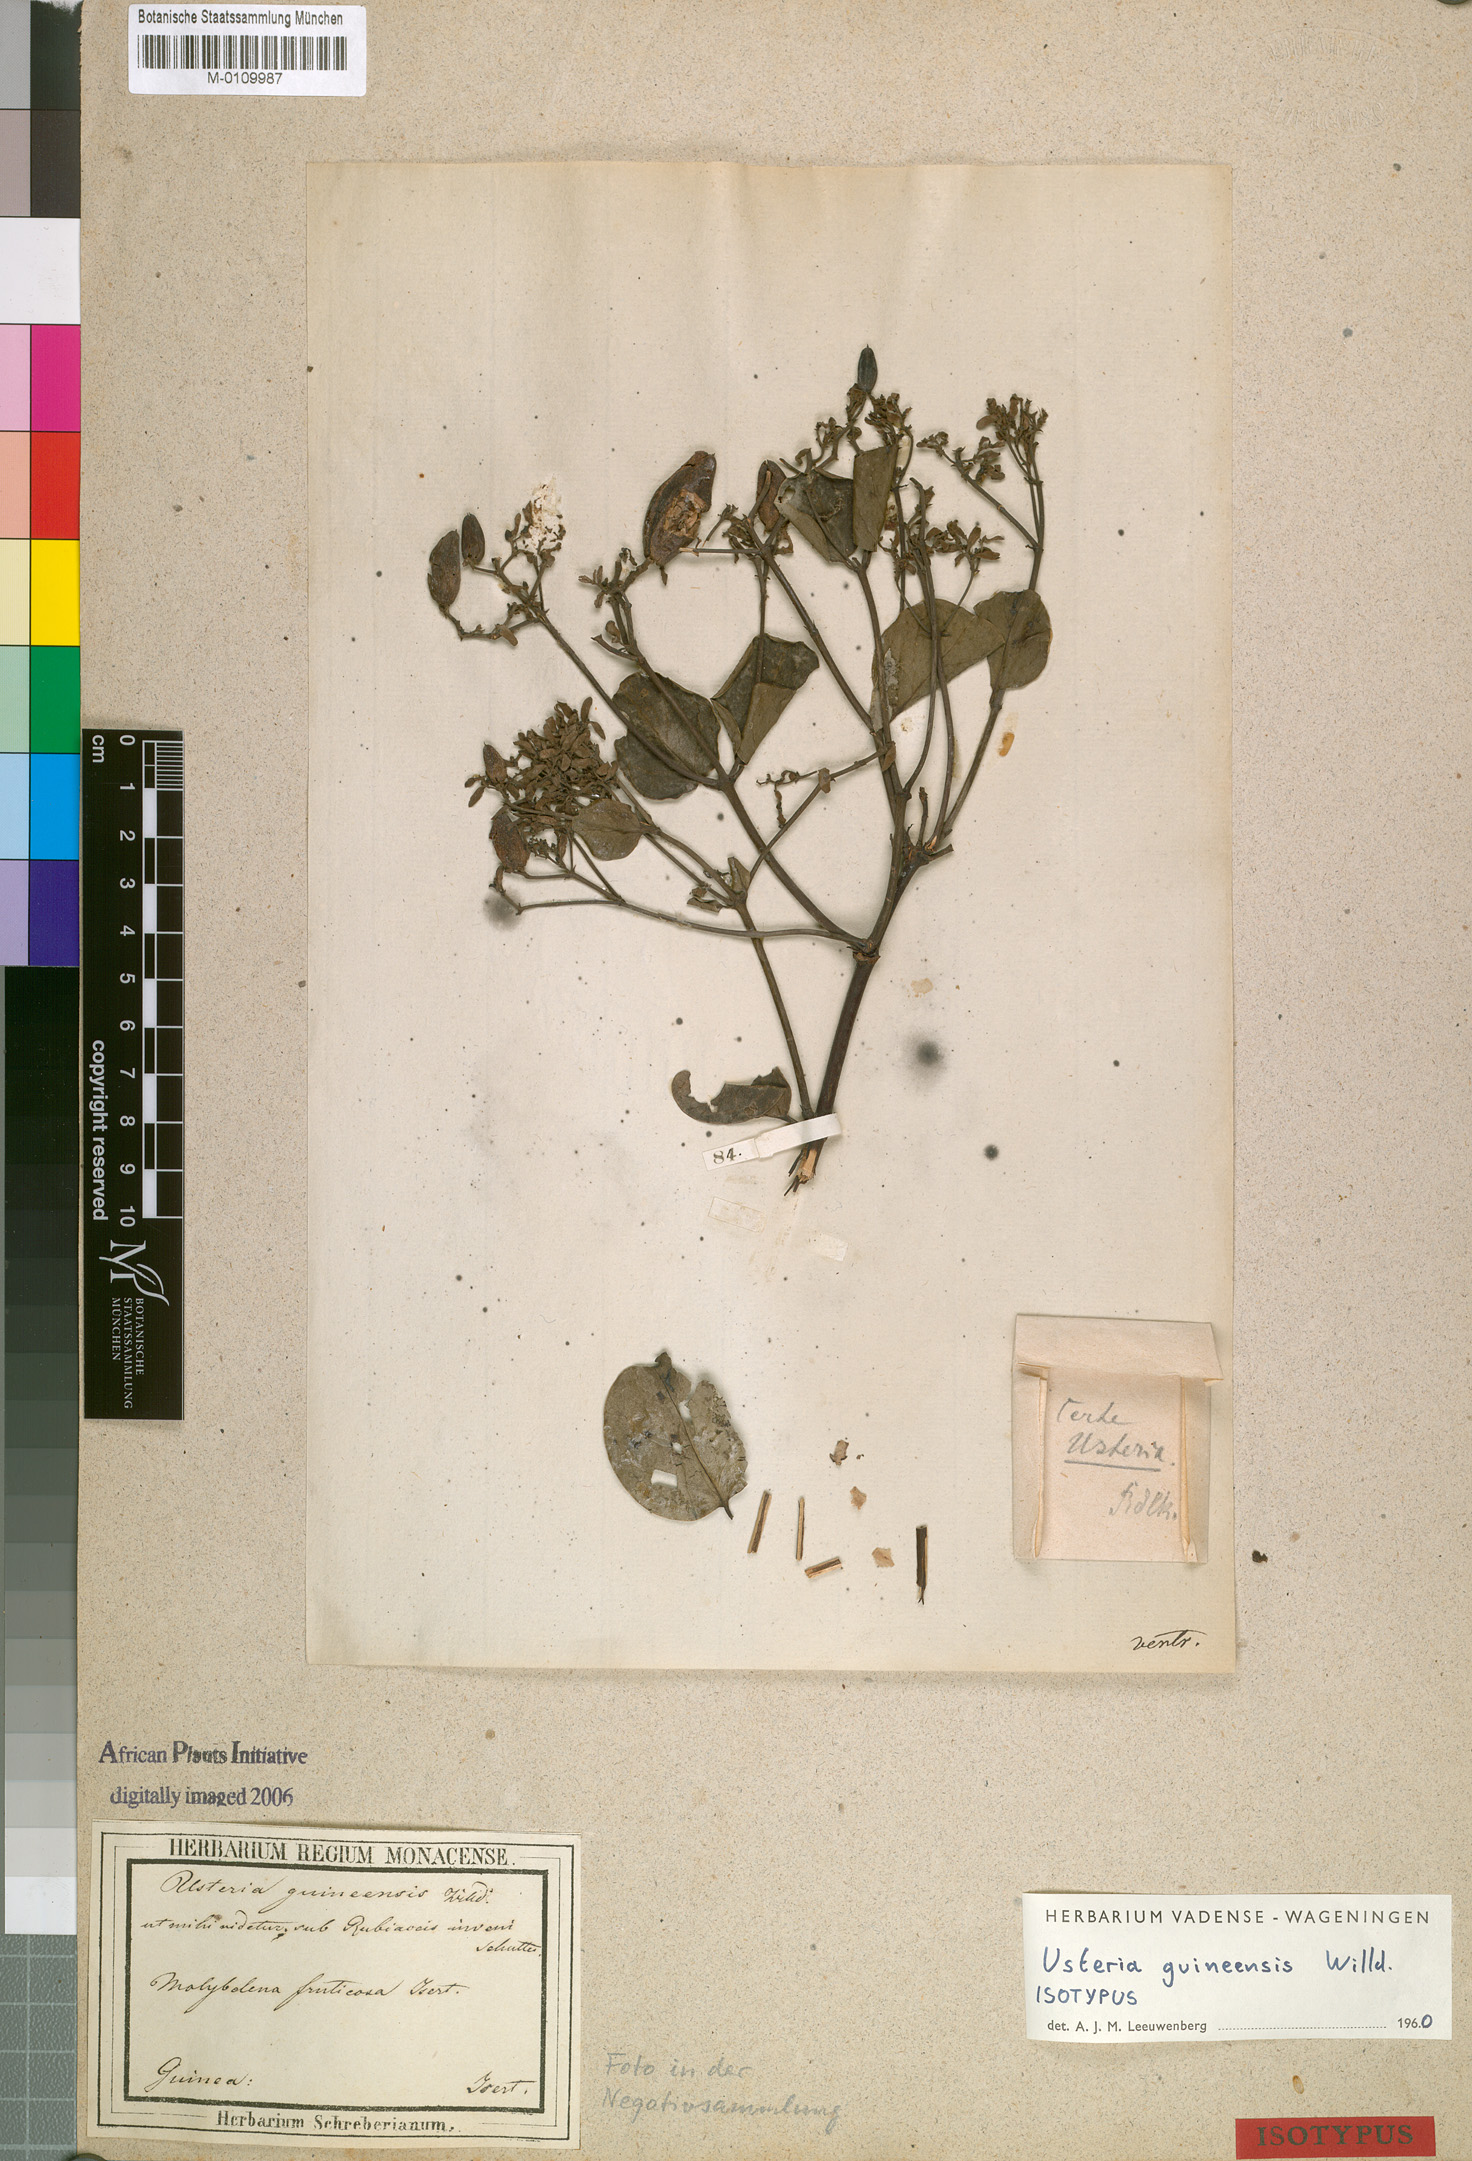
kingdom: Plantae
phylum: Tracheophyta
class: Magnoliopsida
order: Gentianales
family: Loganiaceae
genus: Usteria
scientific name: Usteria guineensis
